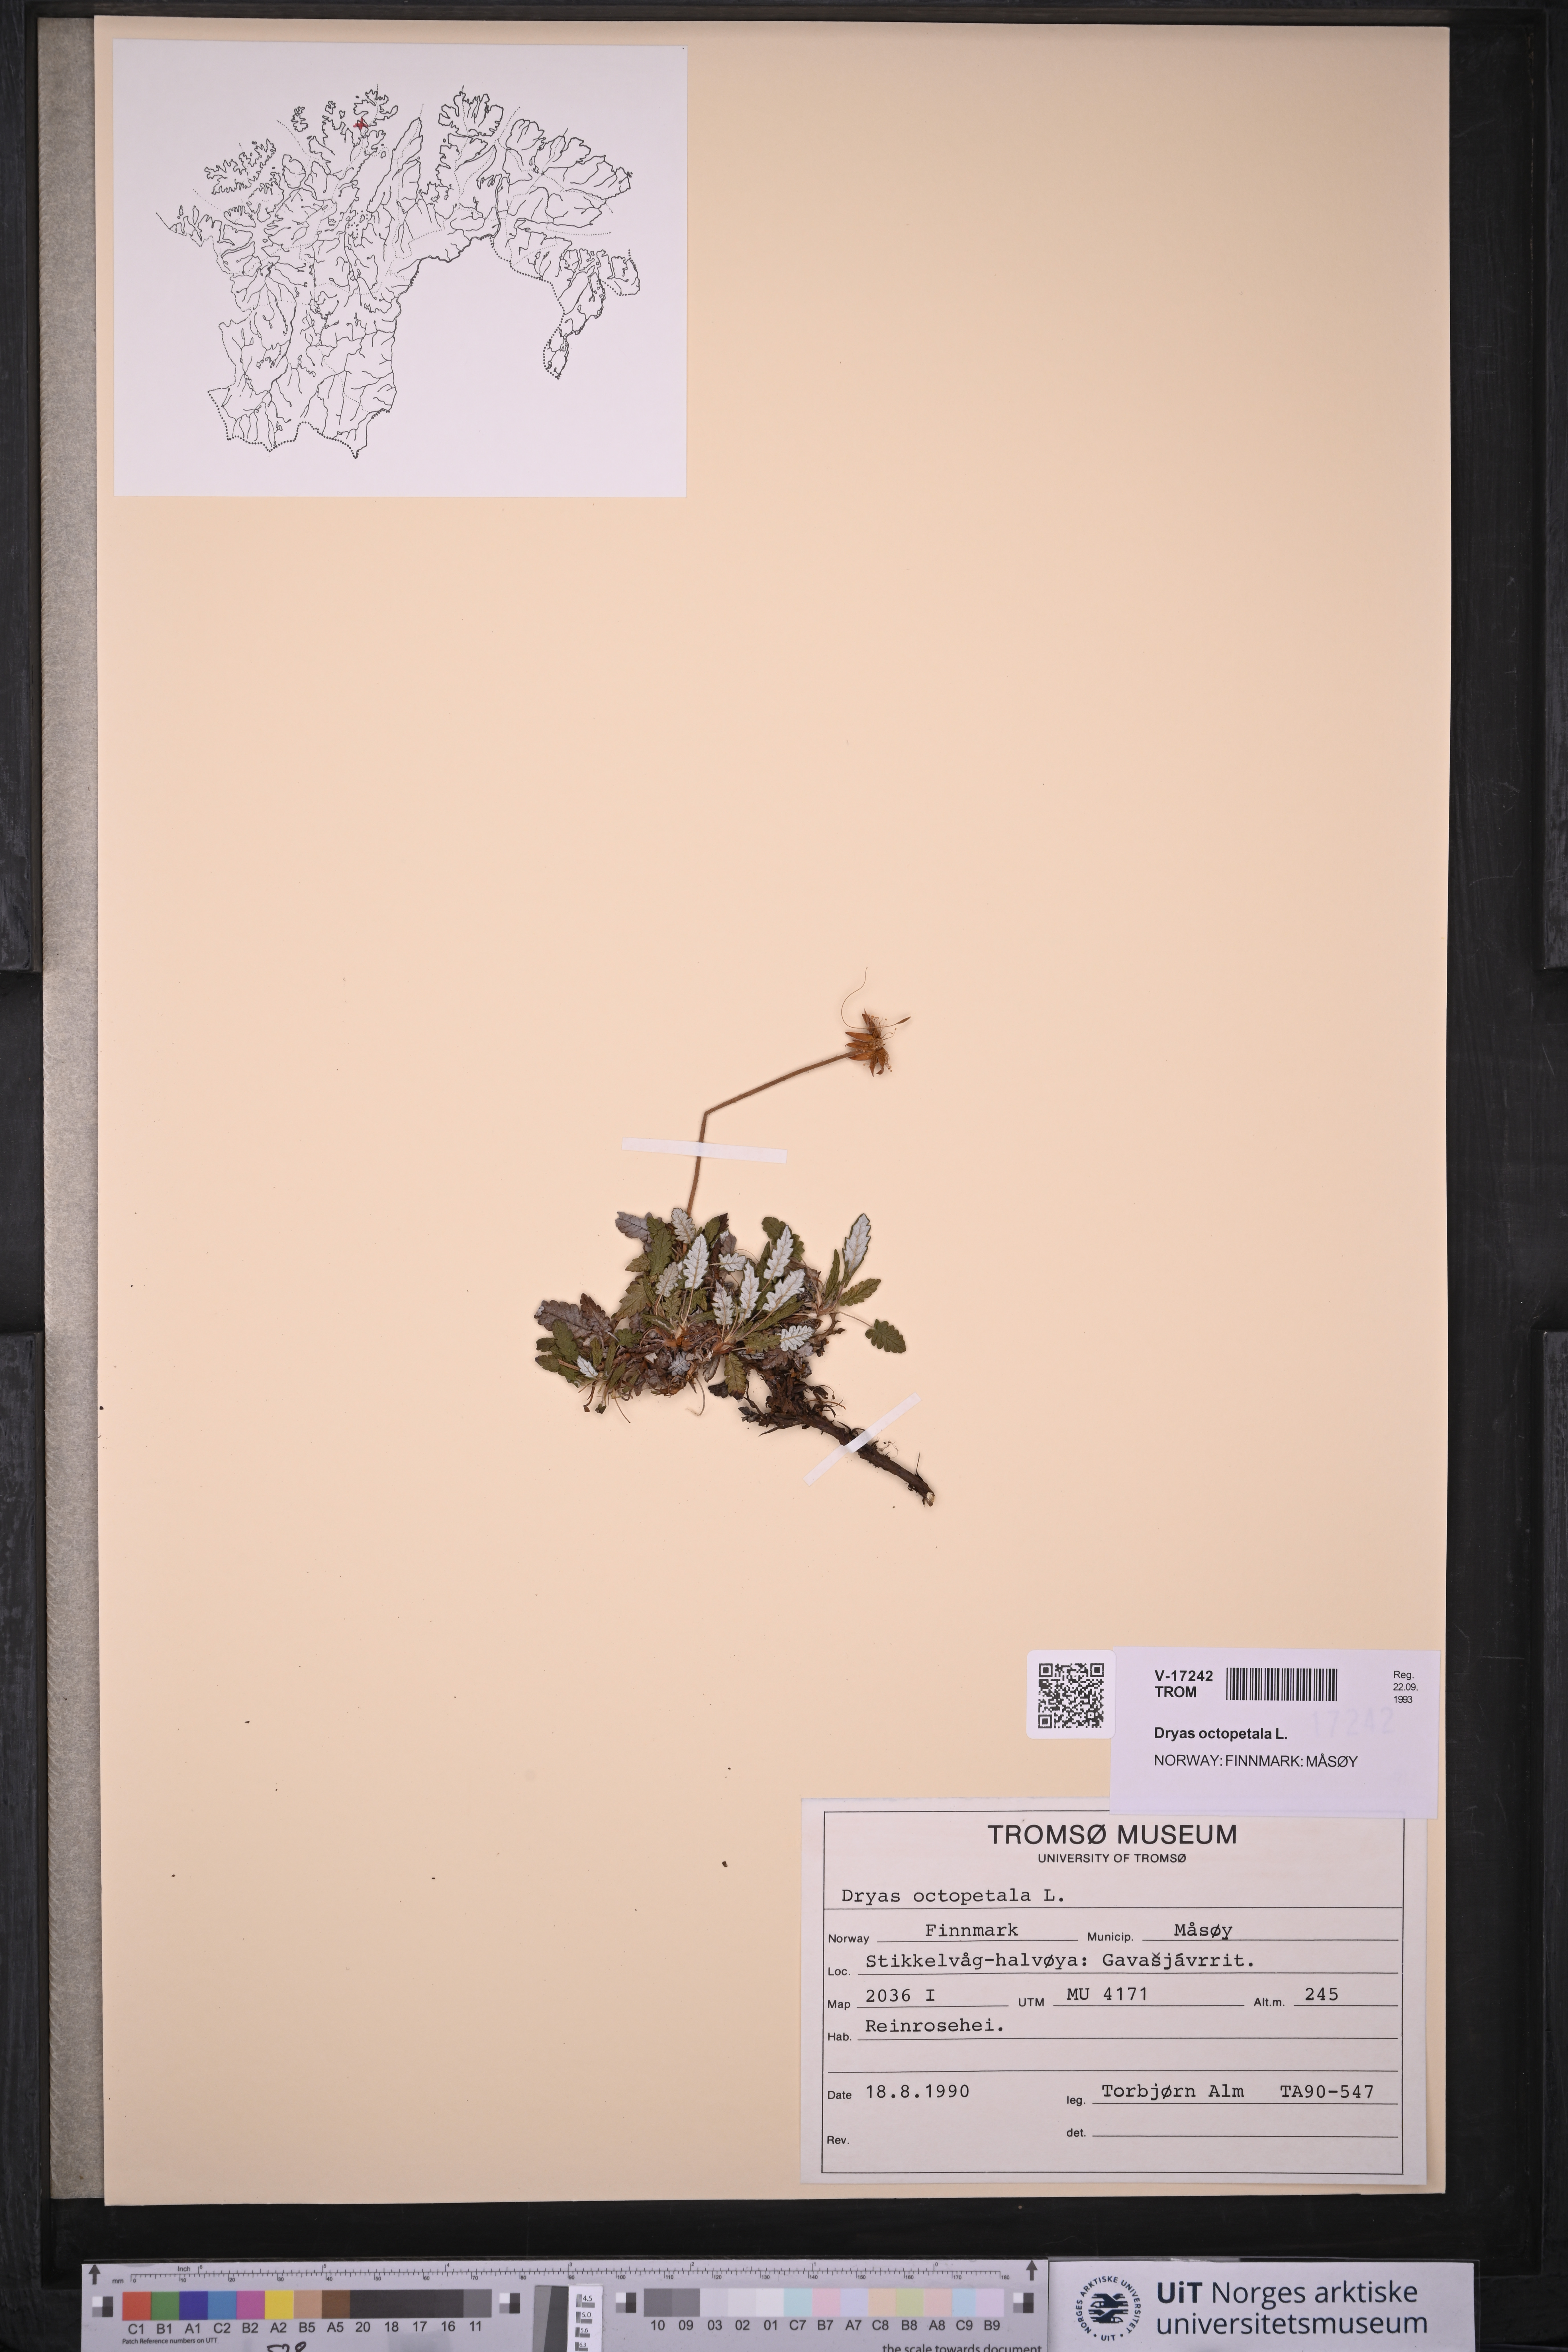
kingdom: Plantae
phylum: Tracheophyta
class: Magnoliopsida
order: Rosales
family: Rosaceae
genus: Dryas
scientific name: Dryas octopetala
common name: Eight-petal mountain-avens
